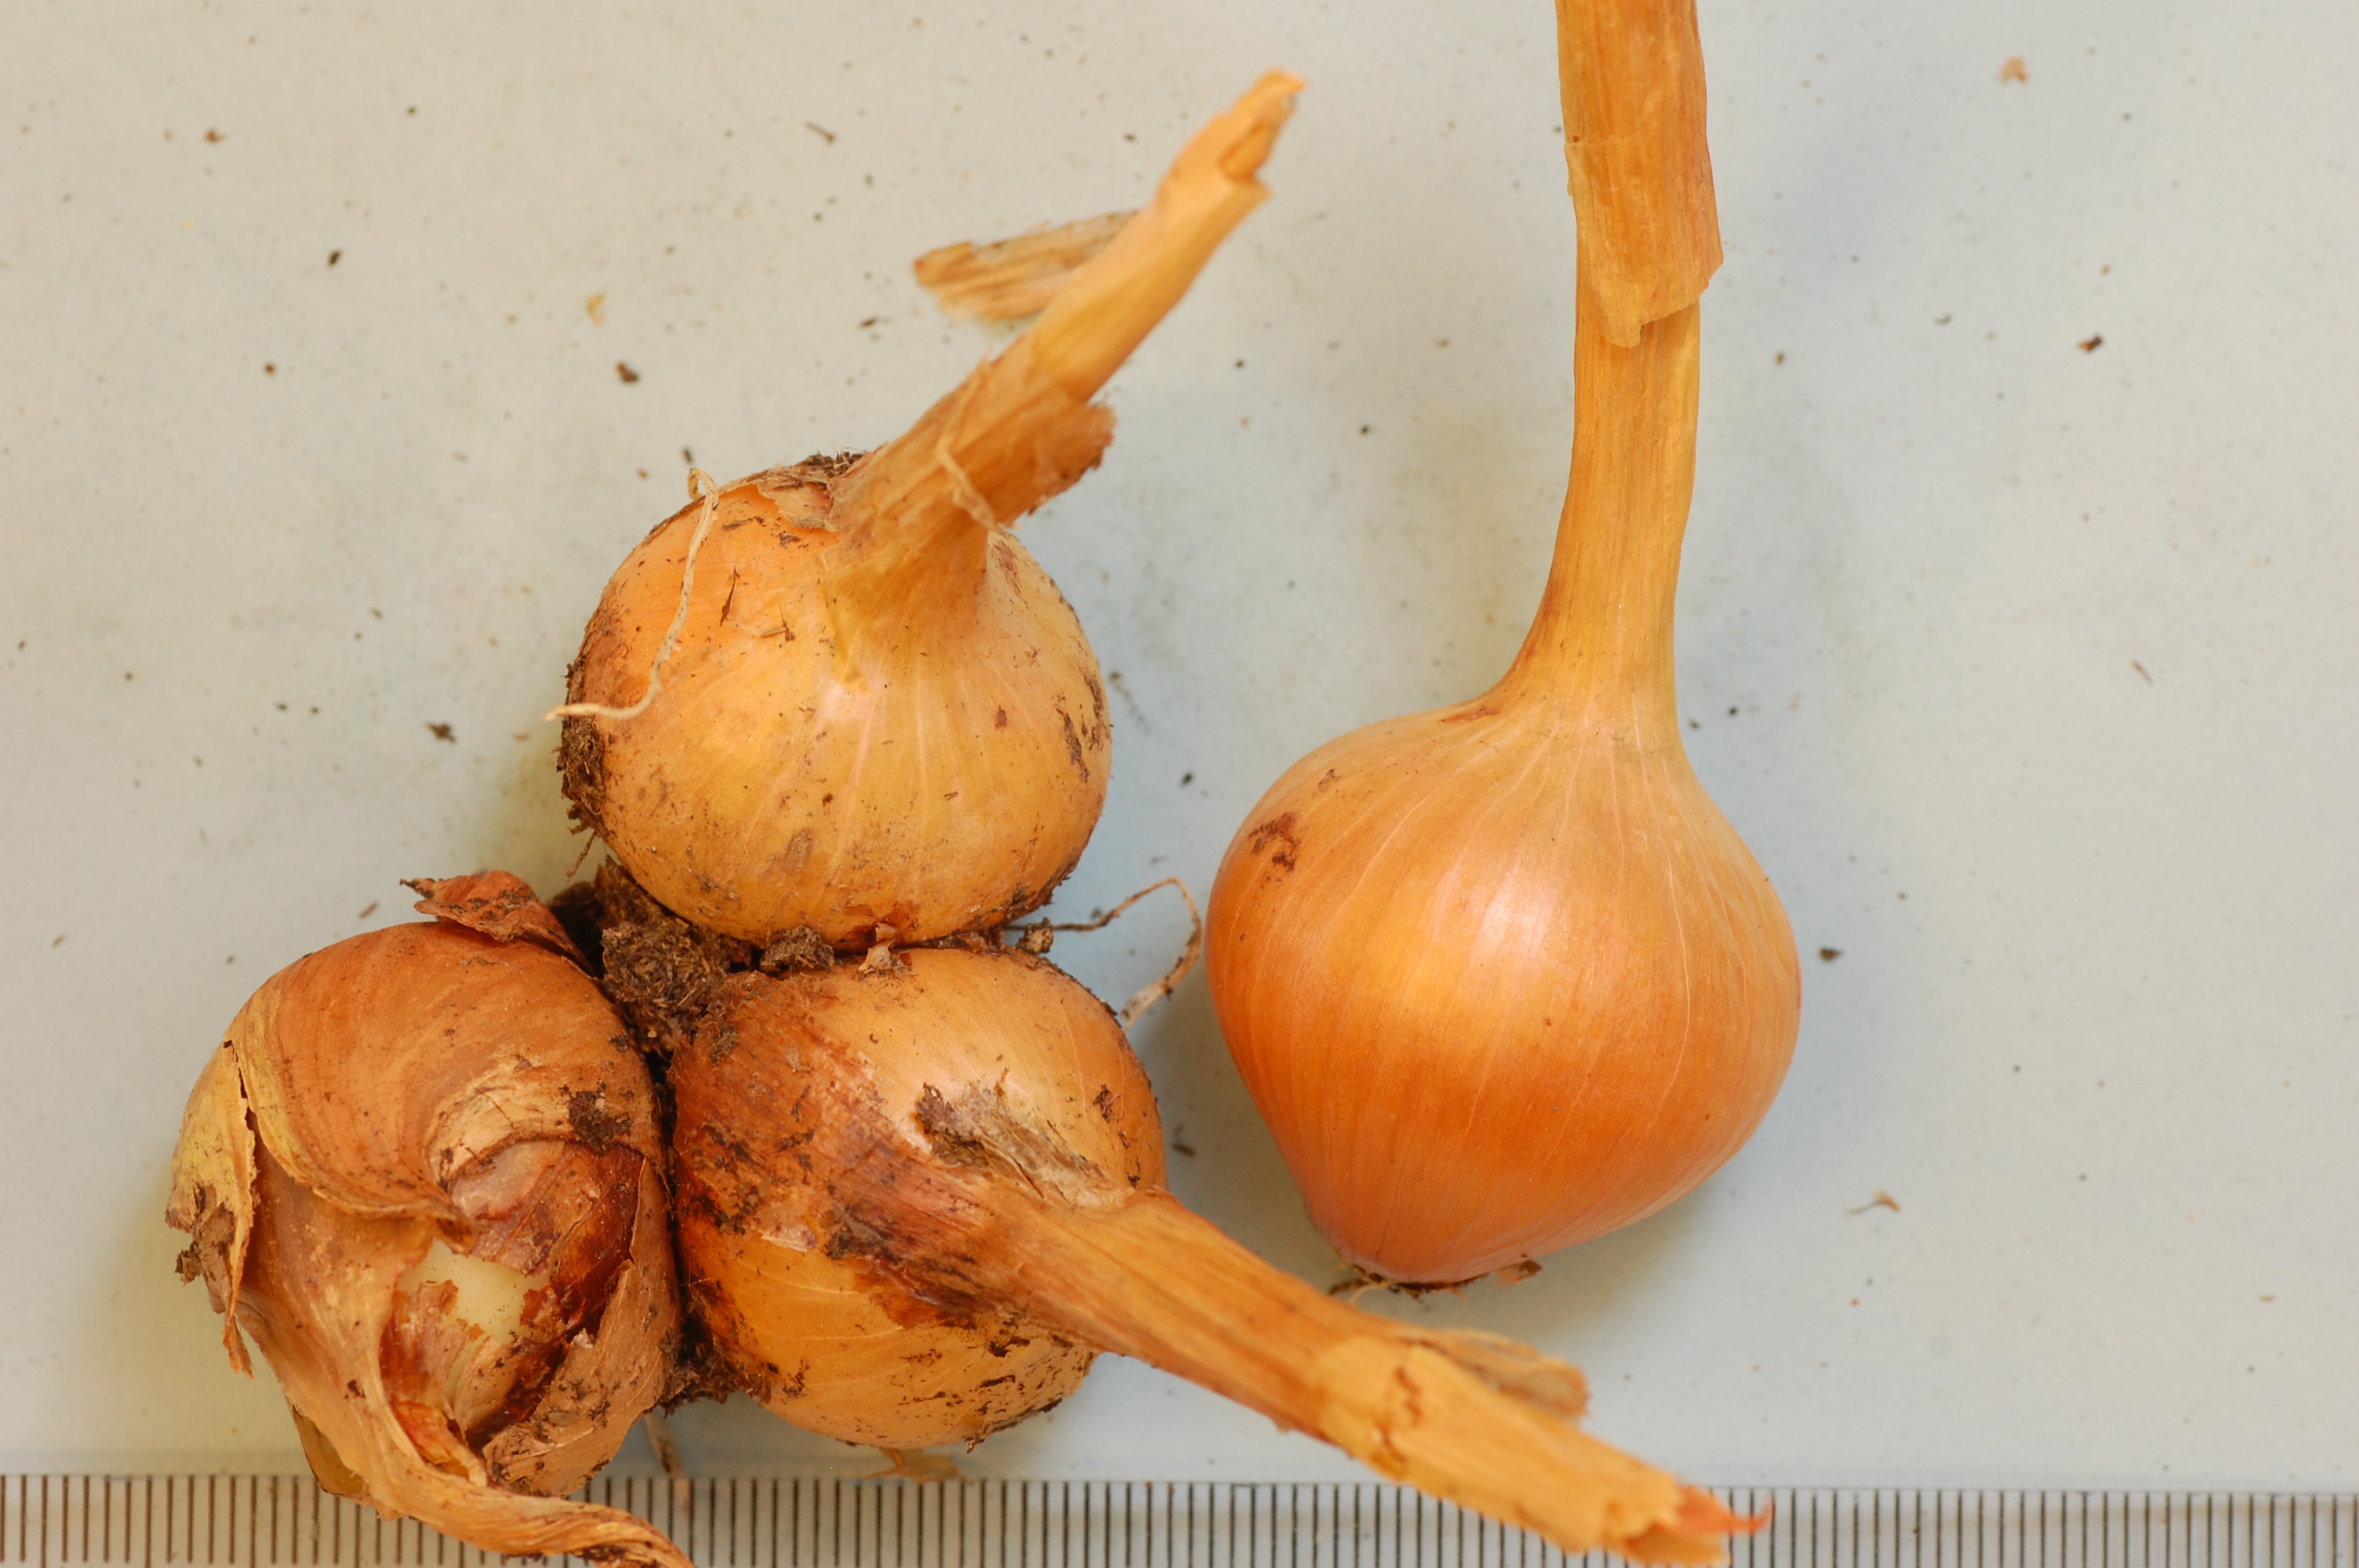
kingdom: Plantae
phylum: Tracheophyta
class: Liliopsida
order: Asparagales
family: Amaryllidaceae
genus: Allium
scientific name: Allium cepa
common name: Onion
